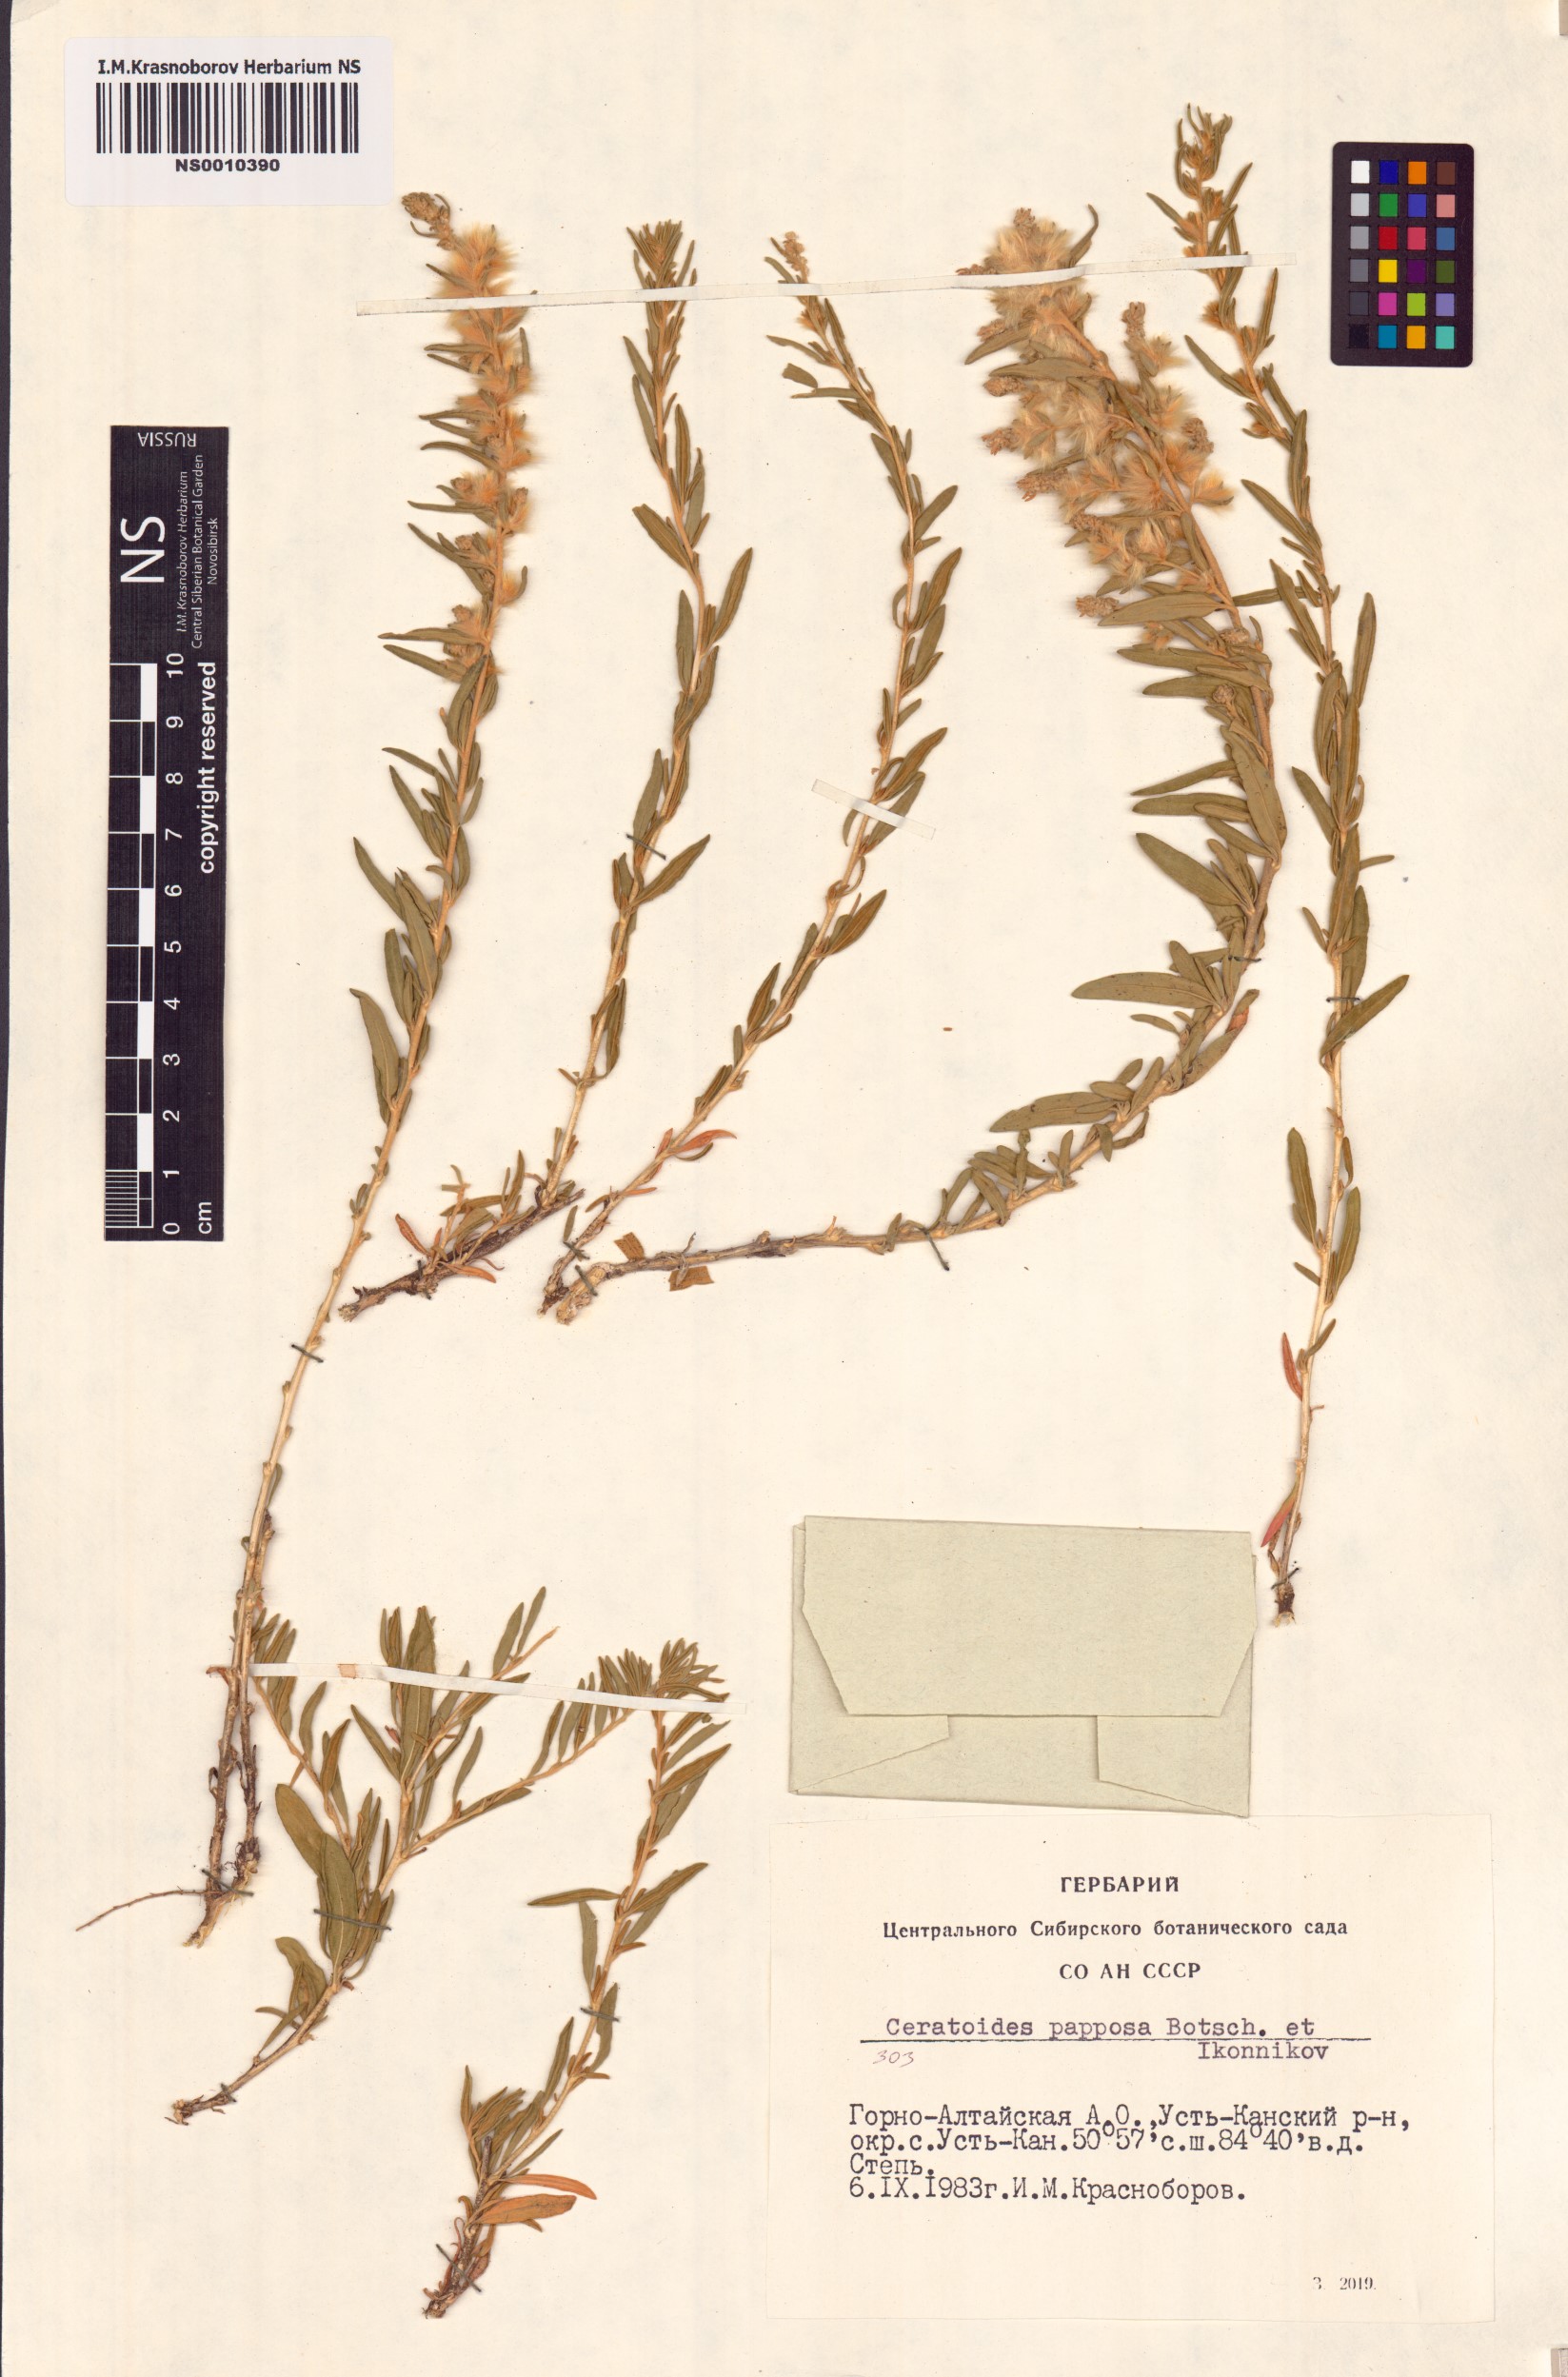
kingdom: Plantae
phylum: Tracheophyta
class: Magnoliopsida
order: Caryophyllales
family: Amaranthaceae
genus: Krascheninnikovia
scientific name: Krascheninnikovia ceratoides
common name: Pamirian winterfat
